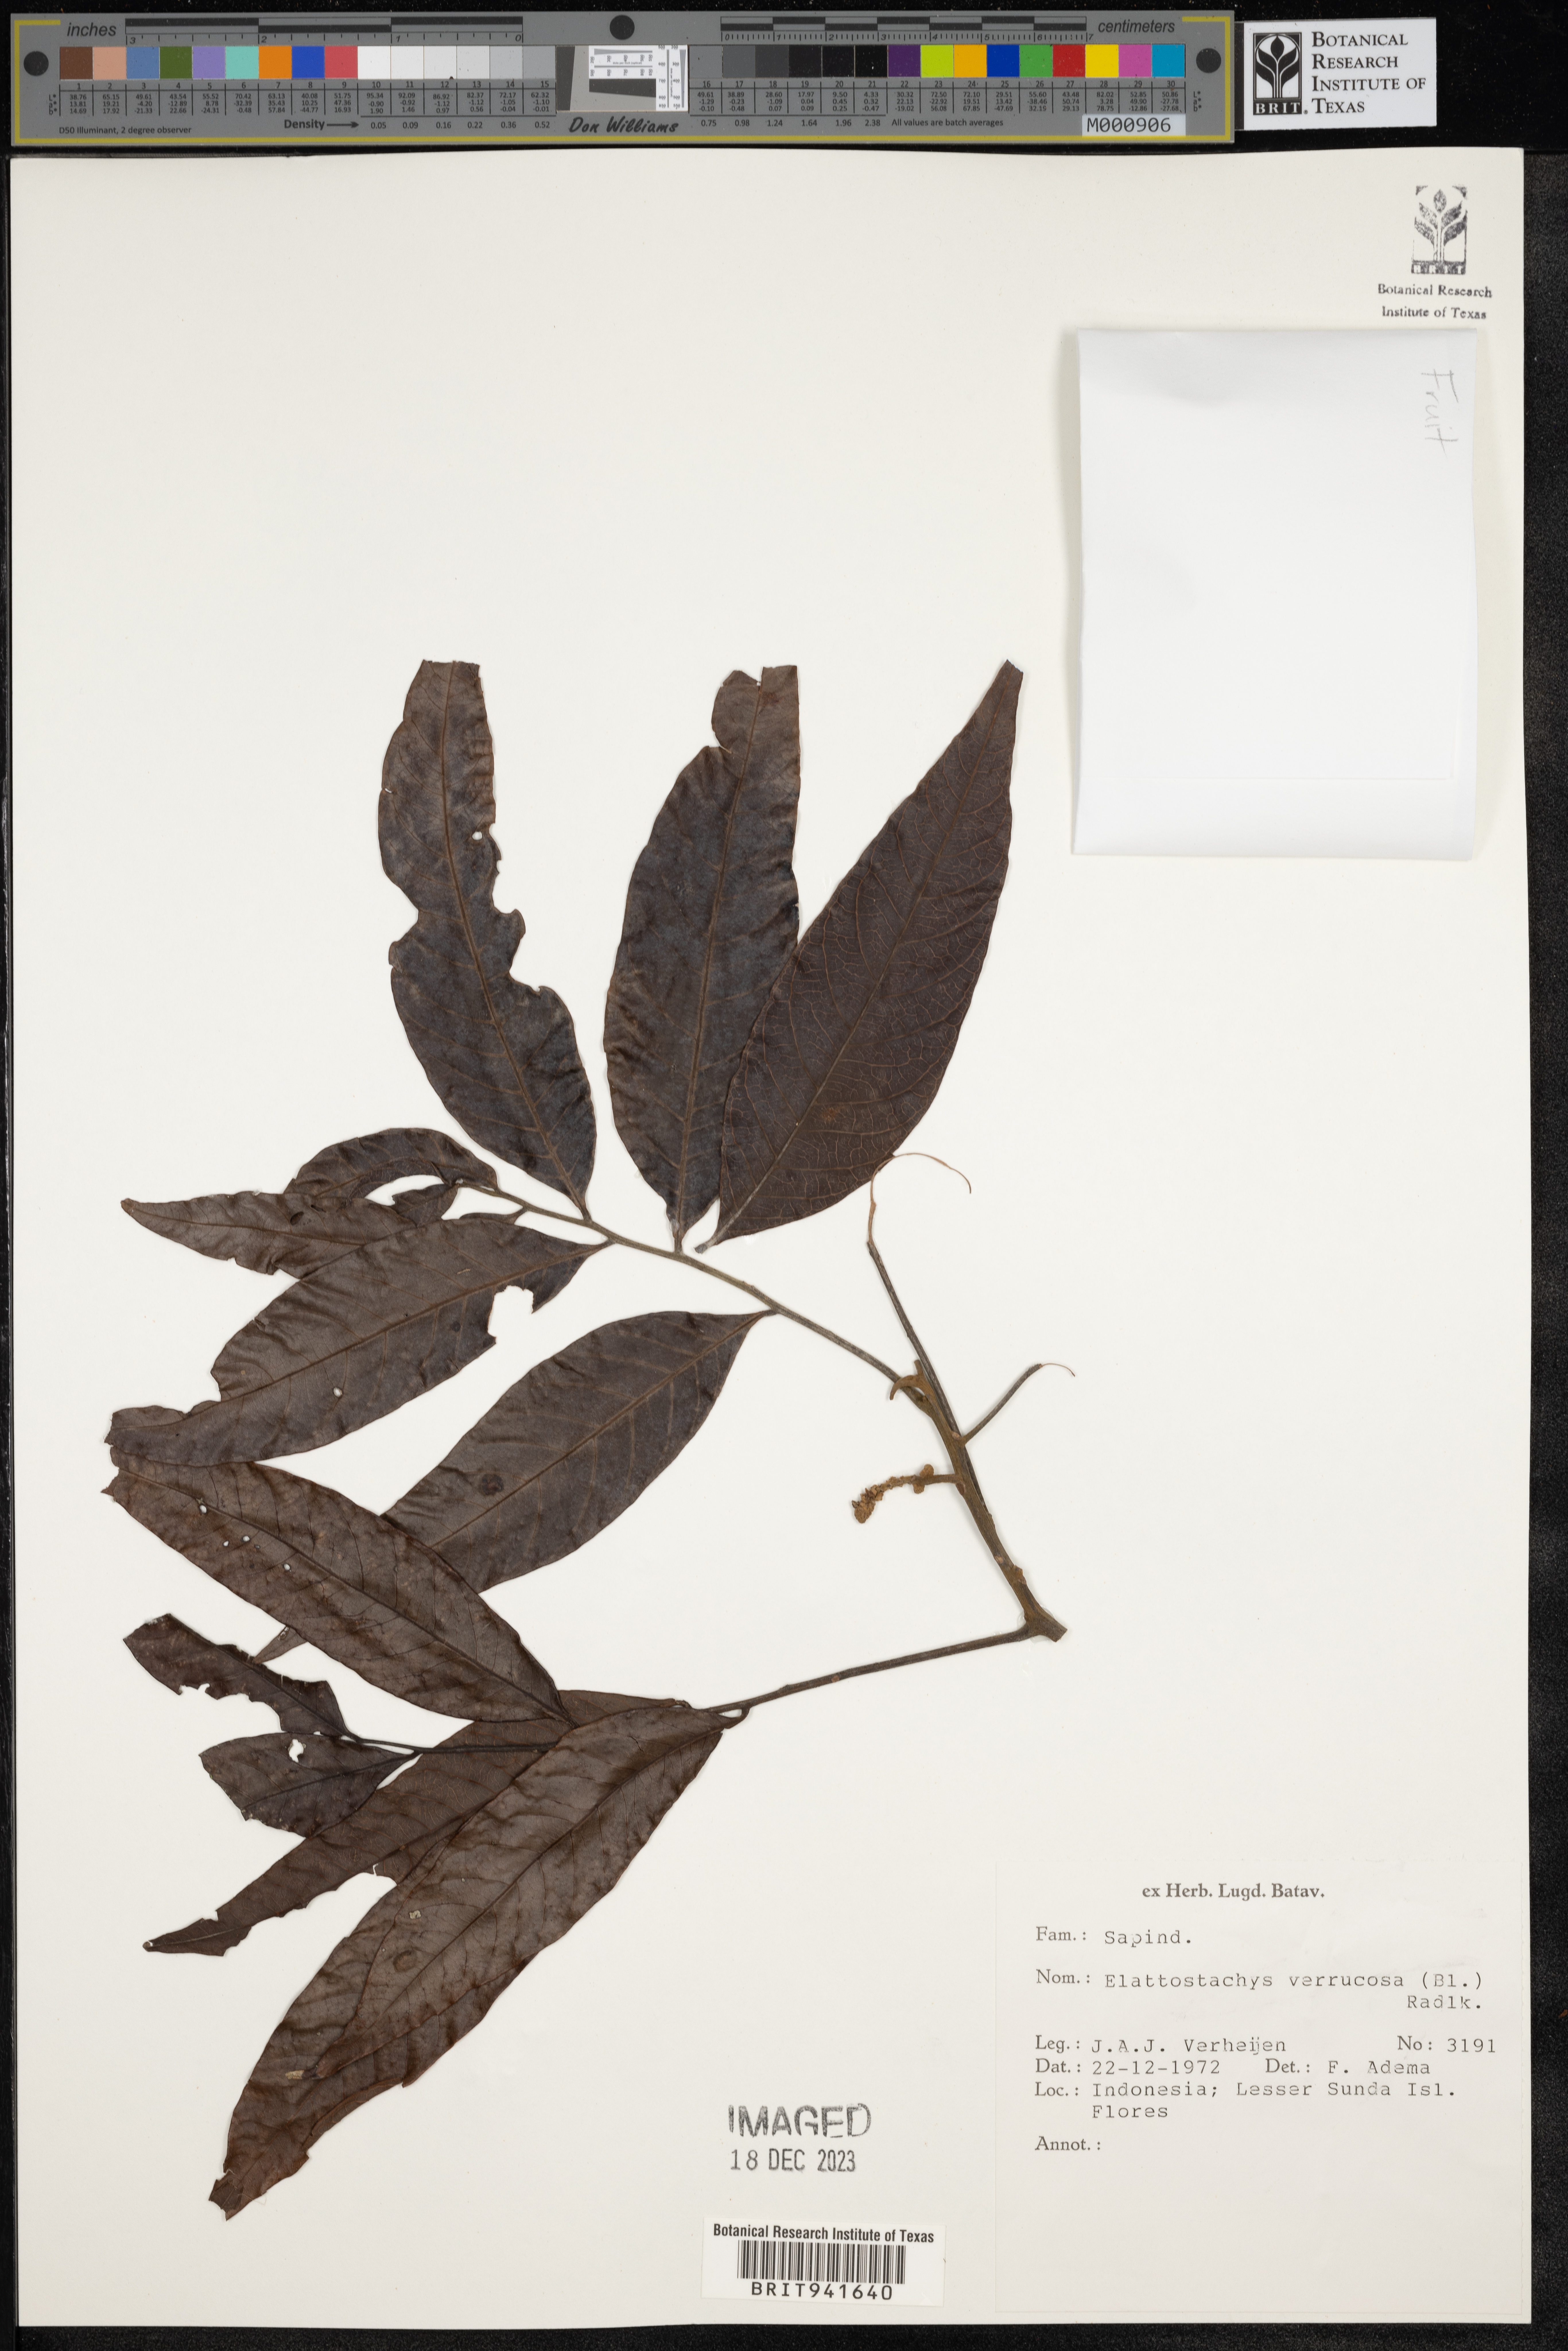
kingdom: Plantae
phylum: Tracheophyta
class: Magnoliopsida
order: Sapindales
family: Sapindaceae
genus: Elattostachys
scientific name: Elattostachys
